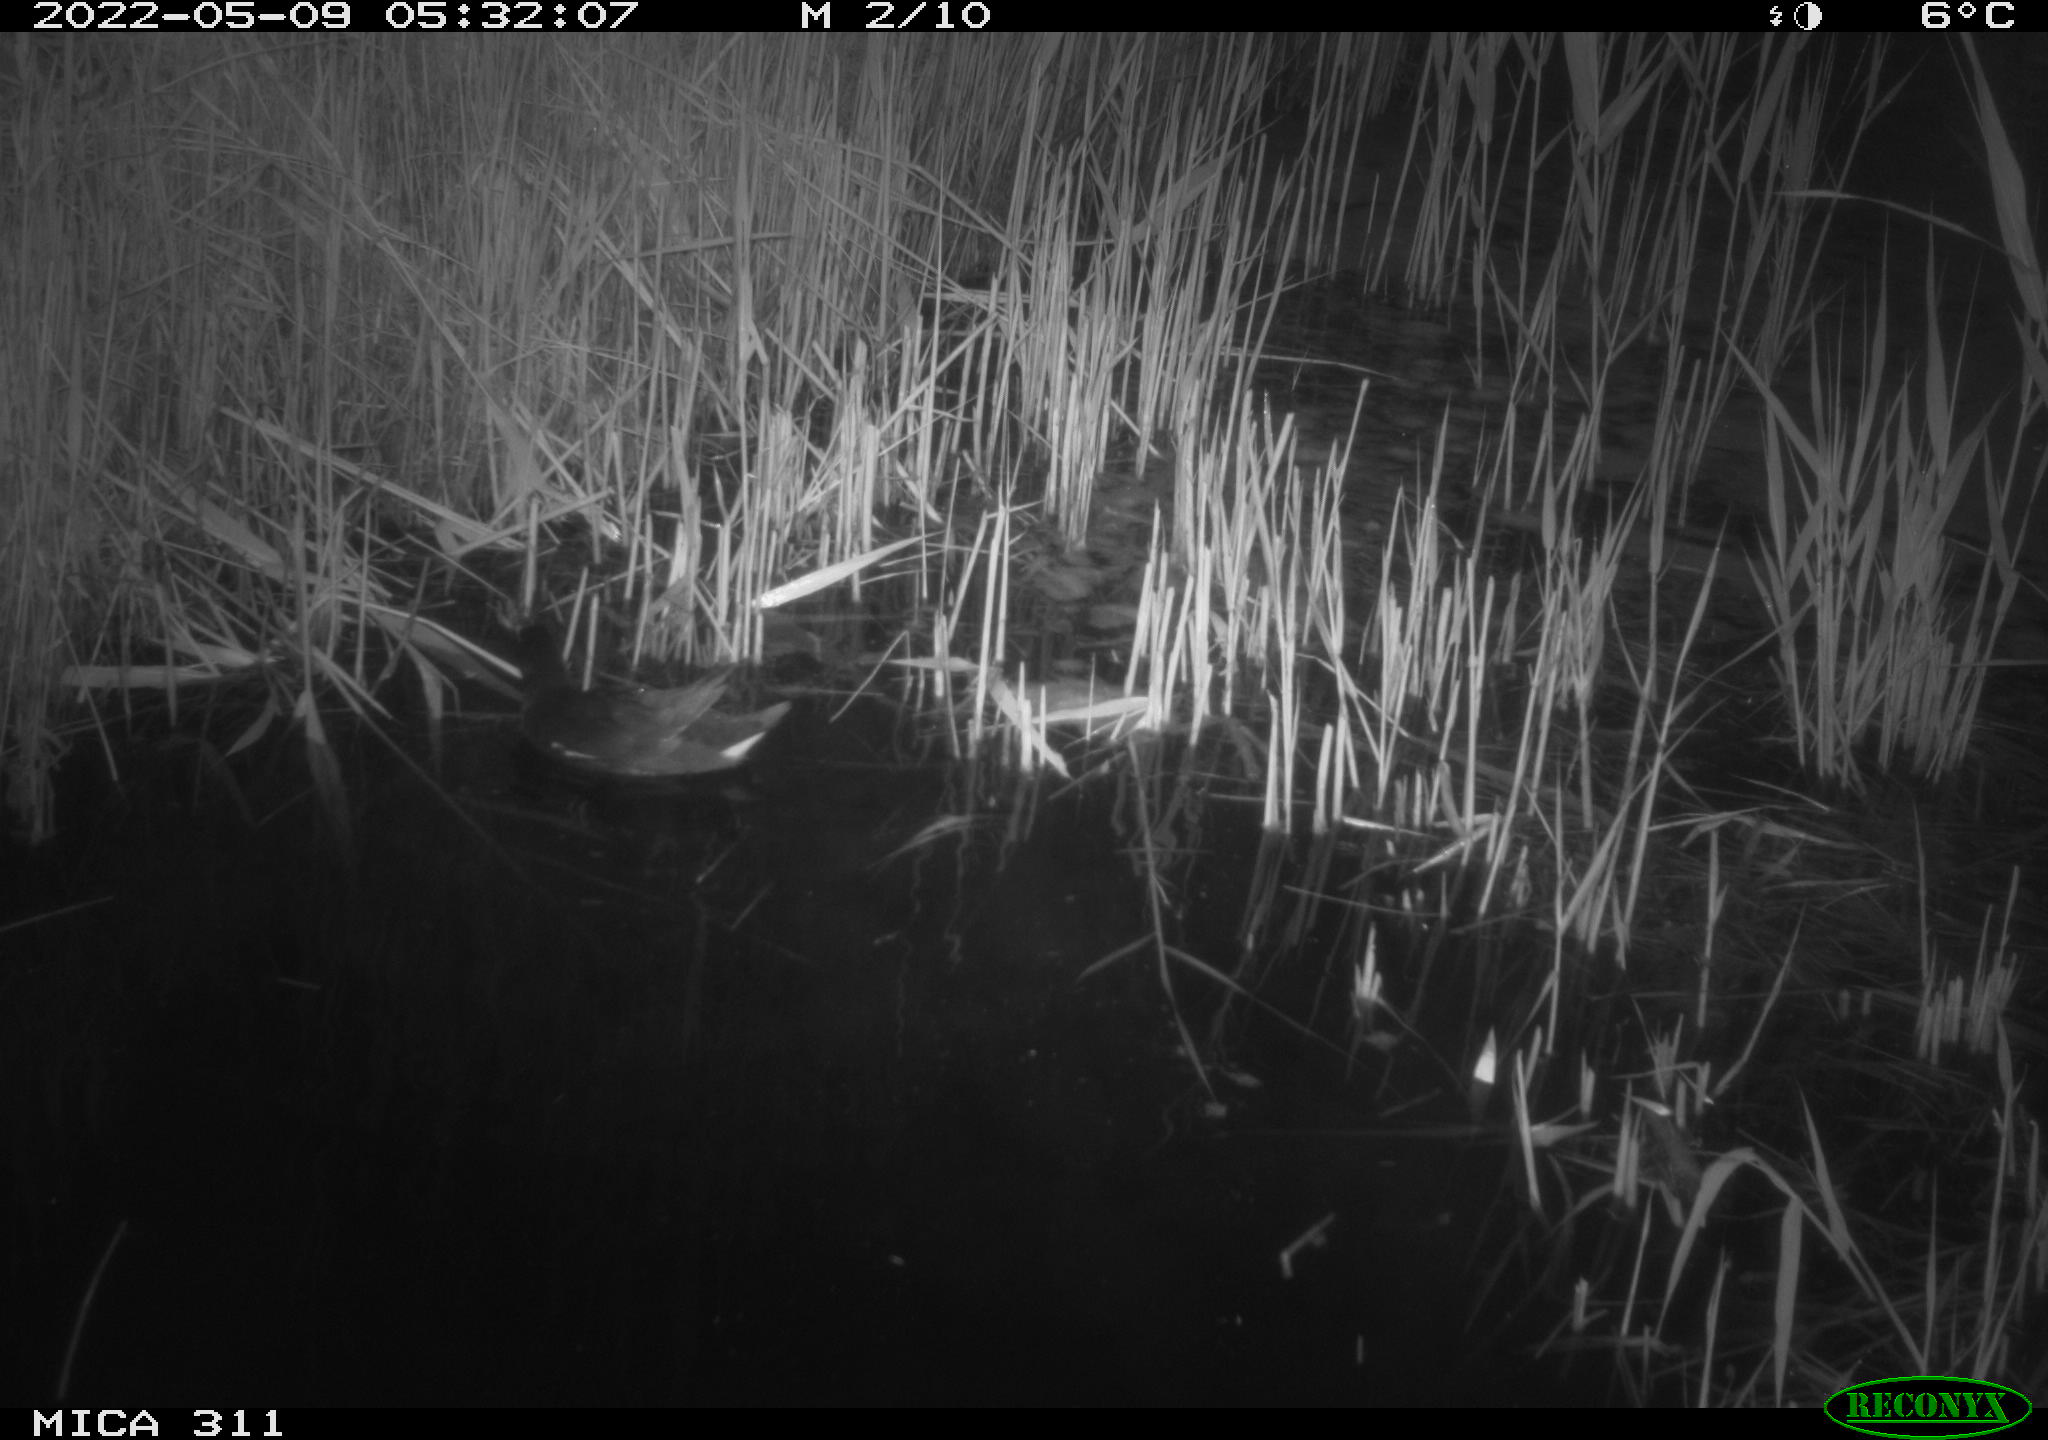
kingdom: Animalia
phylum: Chordata
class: Aves
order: Gruiformes
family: Rallidae
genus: Gallinula
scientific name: Gallinula chloropus
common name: Common moorhen
